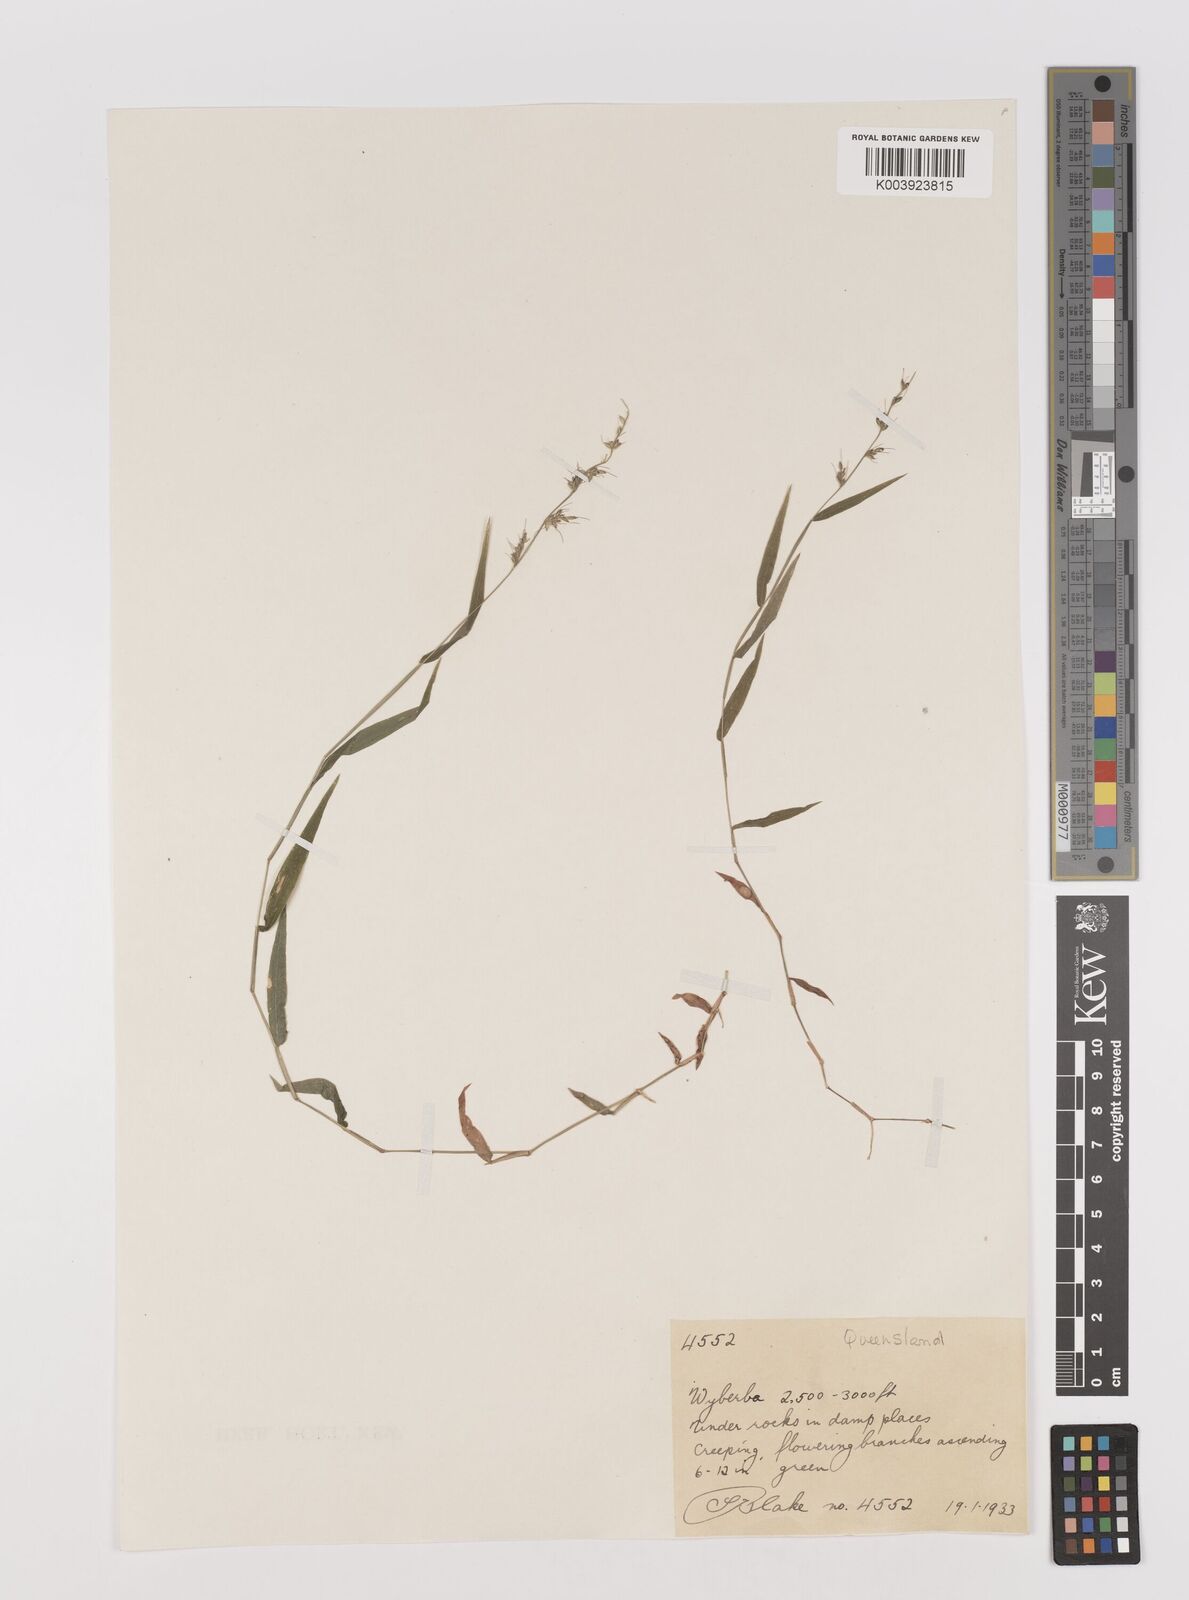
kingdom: Plantae
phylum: Tracheophyta
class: Liliopsida
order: Poales
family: Poaceae
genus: Oplismenus
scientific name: Oplismenus hirtellus
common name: Basketgrass
